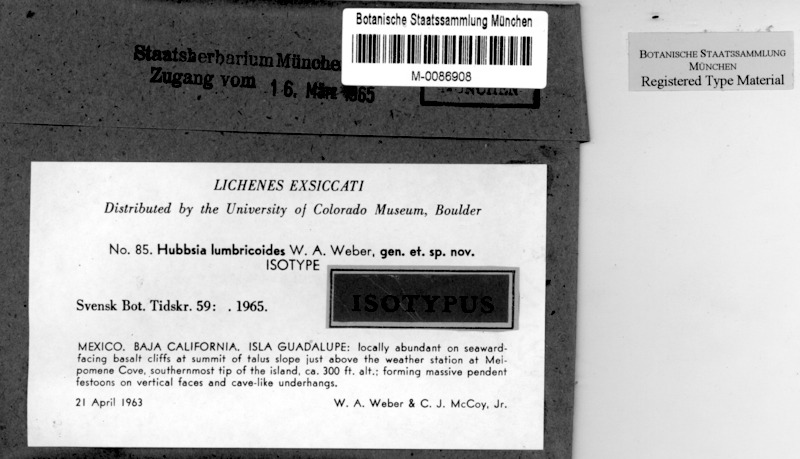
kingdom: Fungi
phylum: Ascomycota
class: Arthoniomycetes
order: Arthoniales
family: Opegraphaceae
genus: Schizopelte
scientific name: Schizopelte lumbricoides
